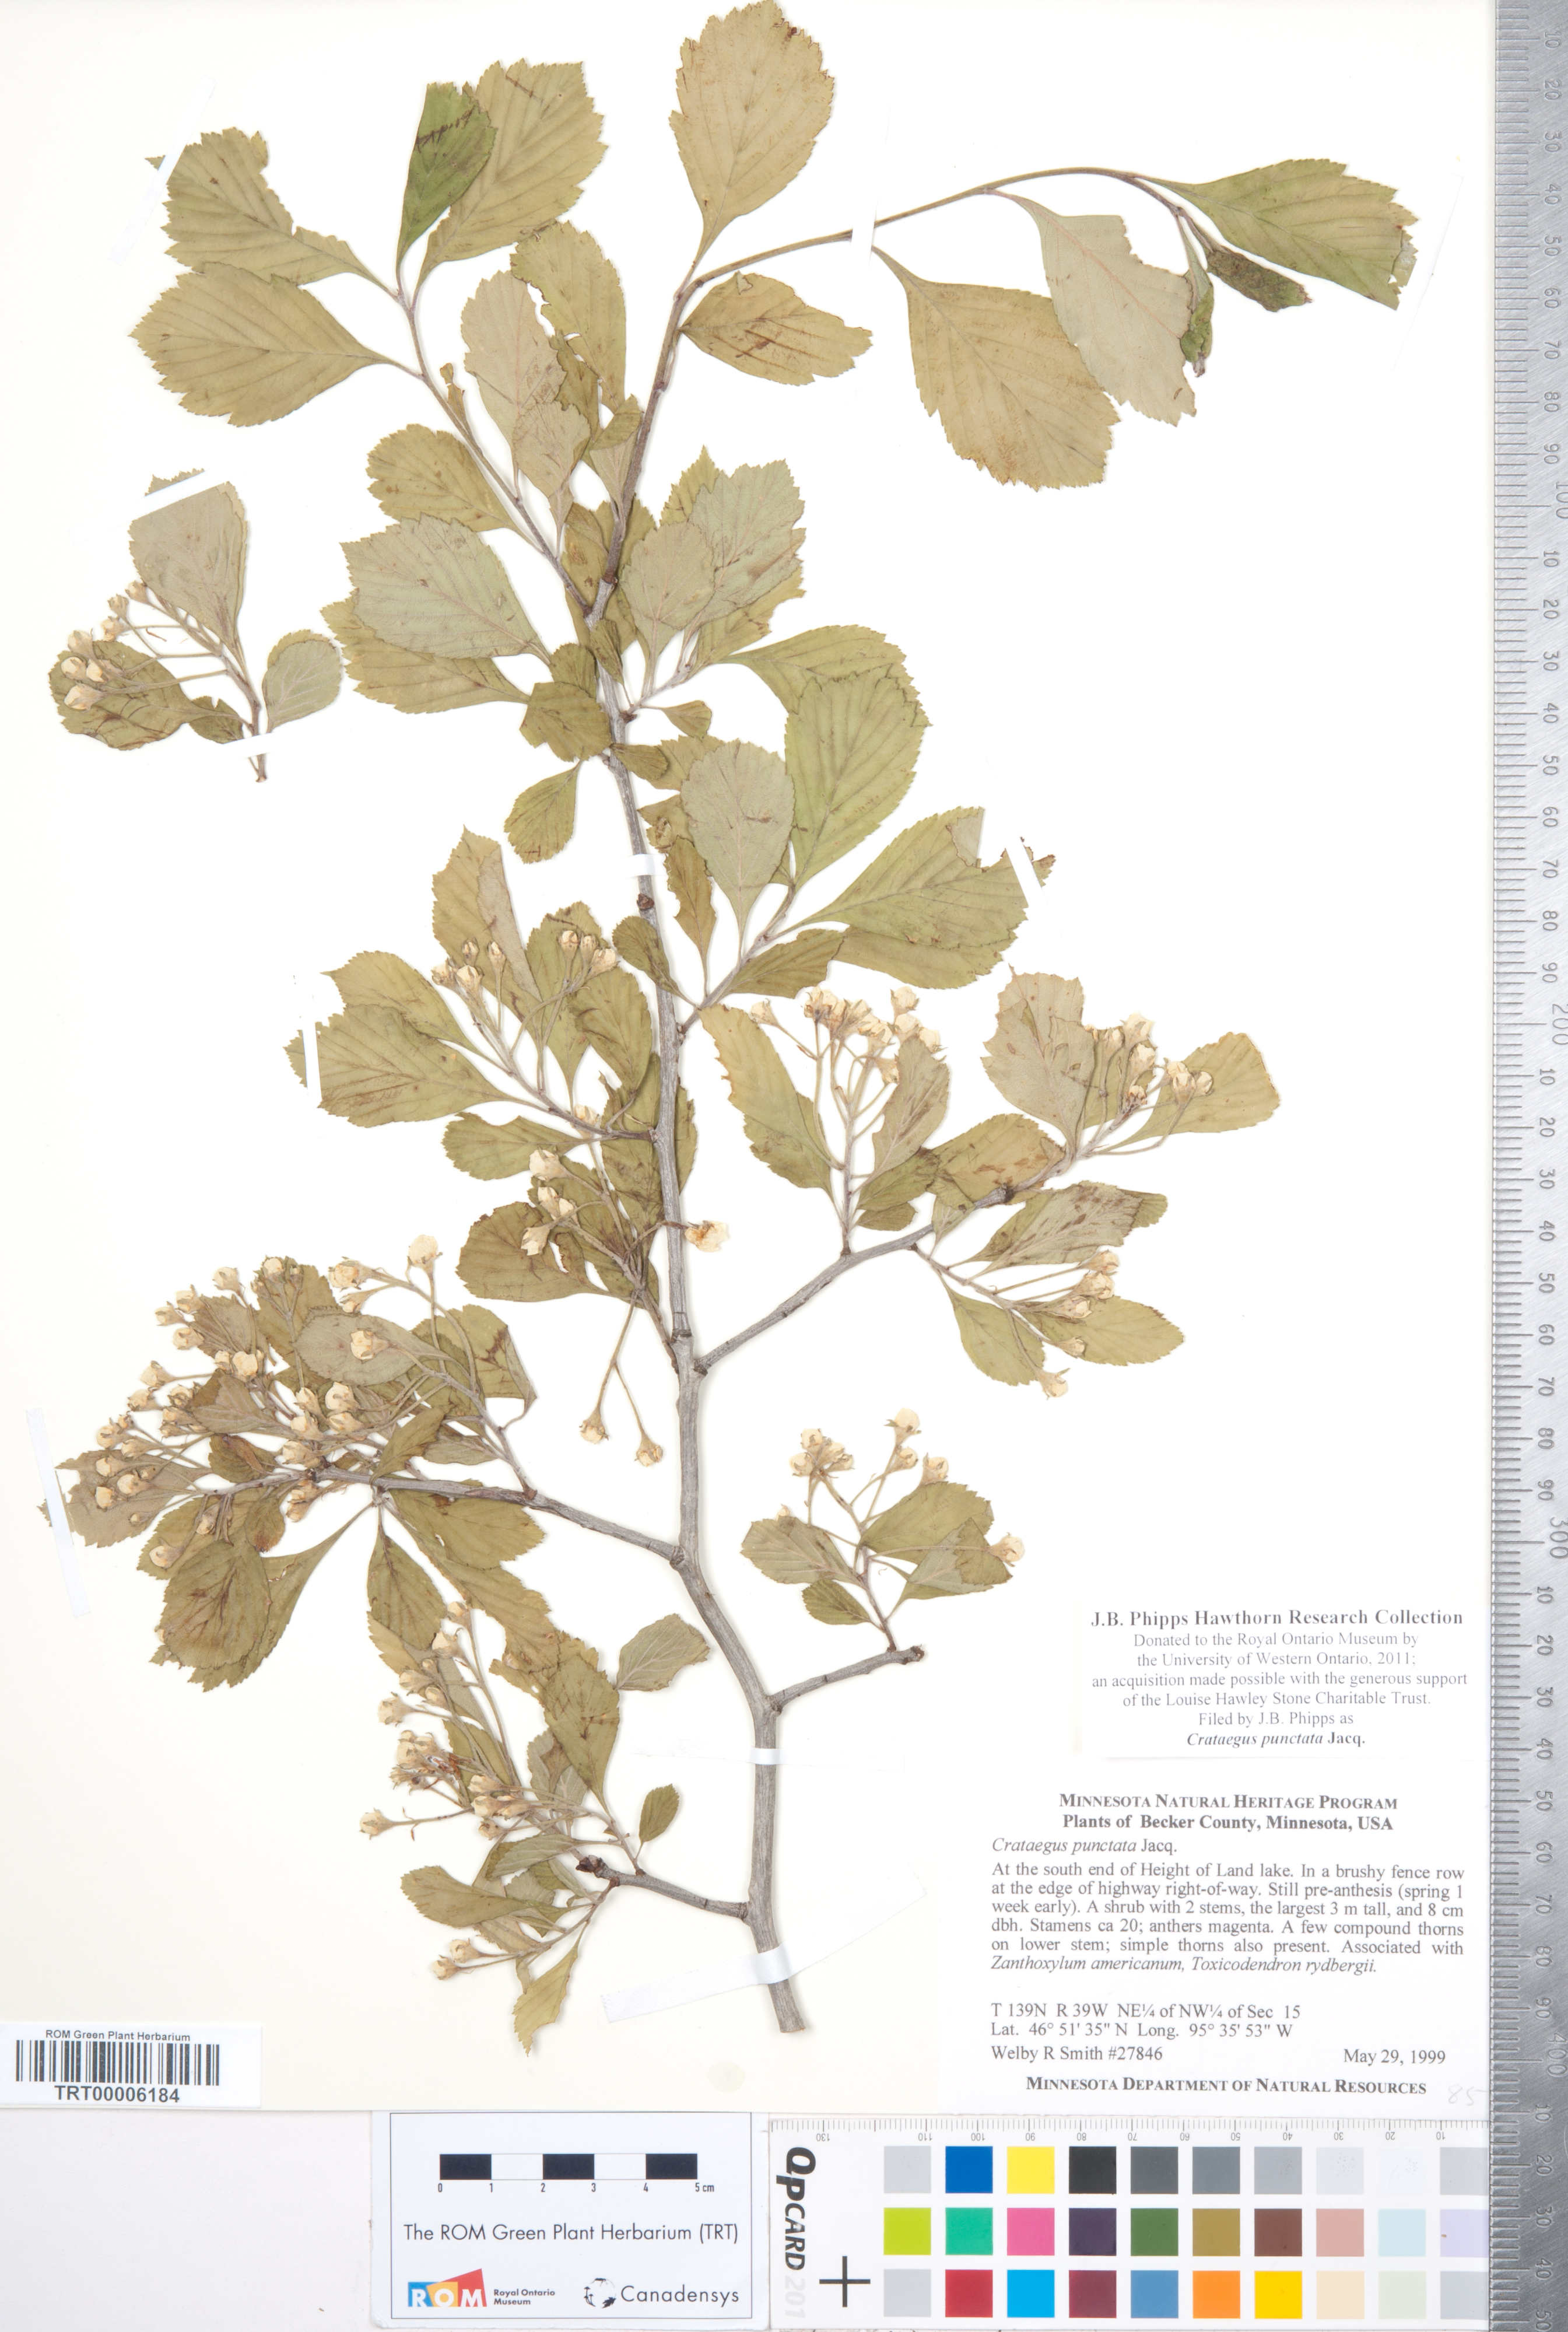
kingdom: Plantae
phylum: Tracheophyta
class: Magnoliopsida
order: Rosales
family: Rosaceae
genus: Crataegus
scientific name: Crataegus punctata
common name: Dotted hawthorn
